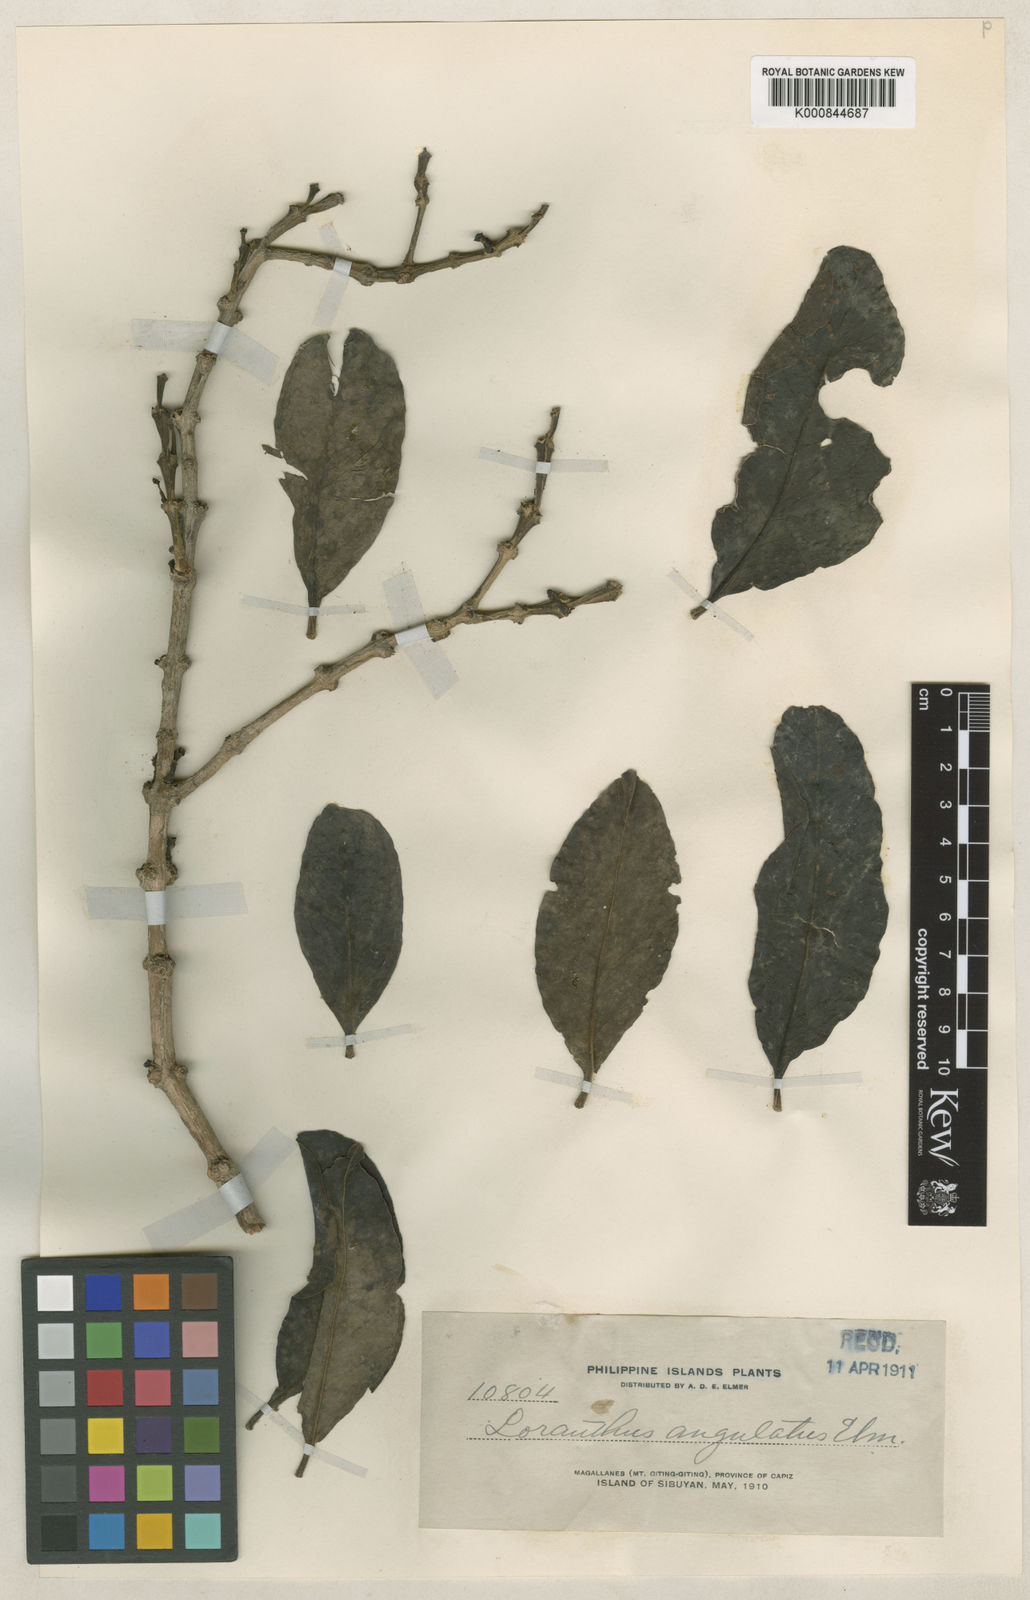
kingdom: Plantae
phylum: Tracheophyta
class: Magnoliopsida
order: Santalales
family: Loranthaceae
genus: Macrosolen
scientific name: Macrosolen geminatus
